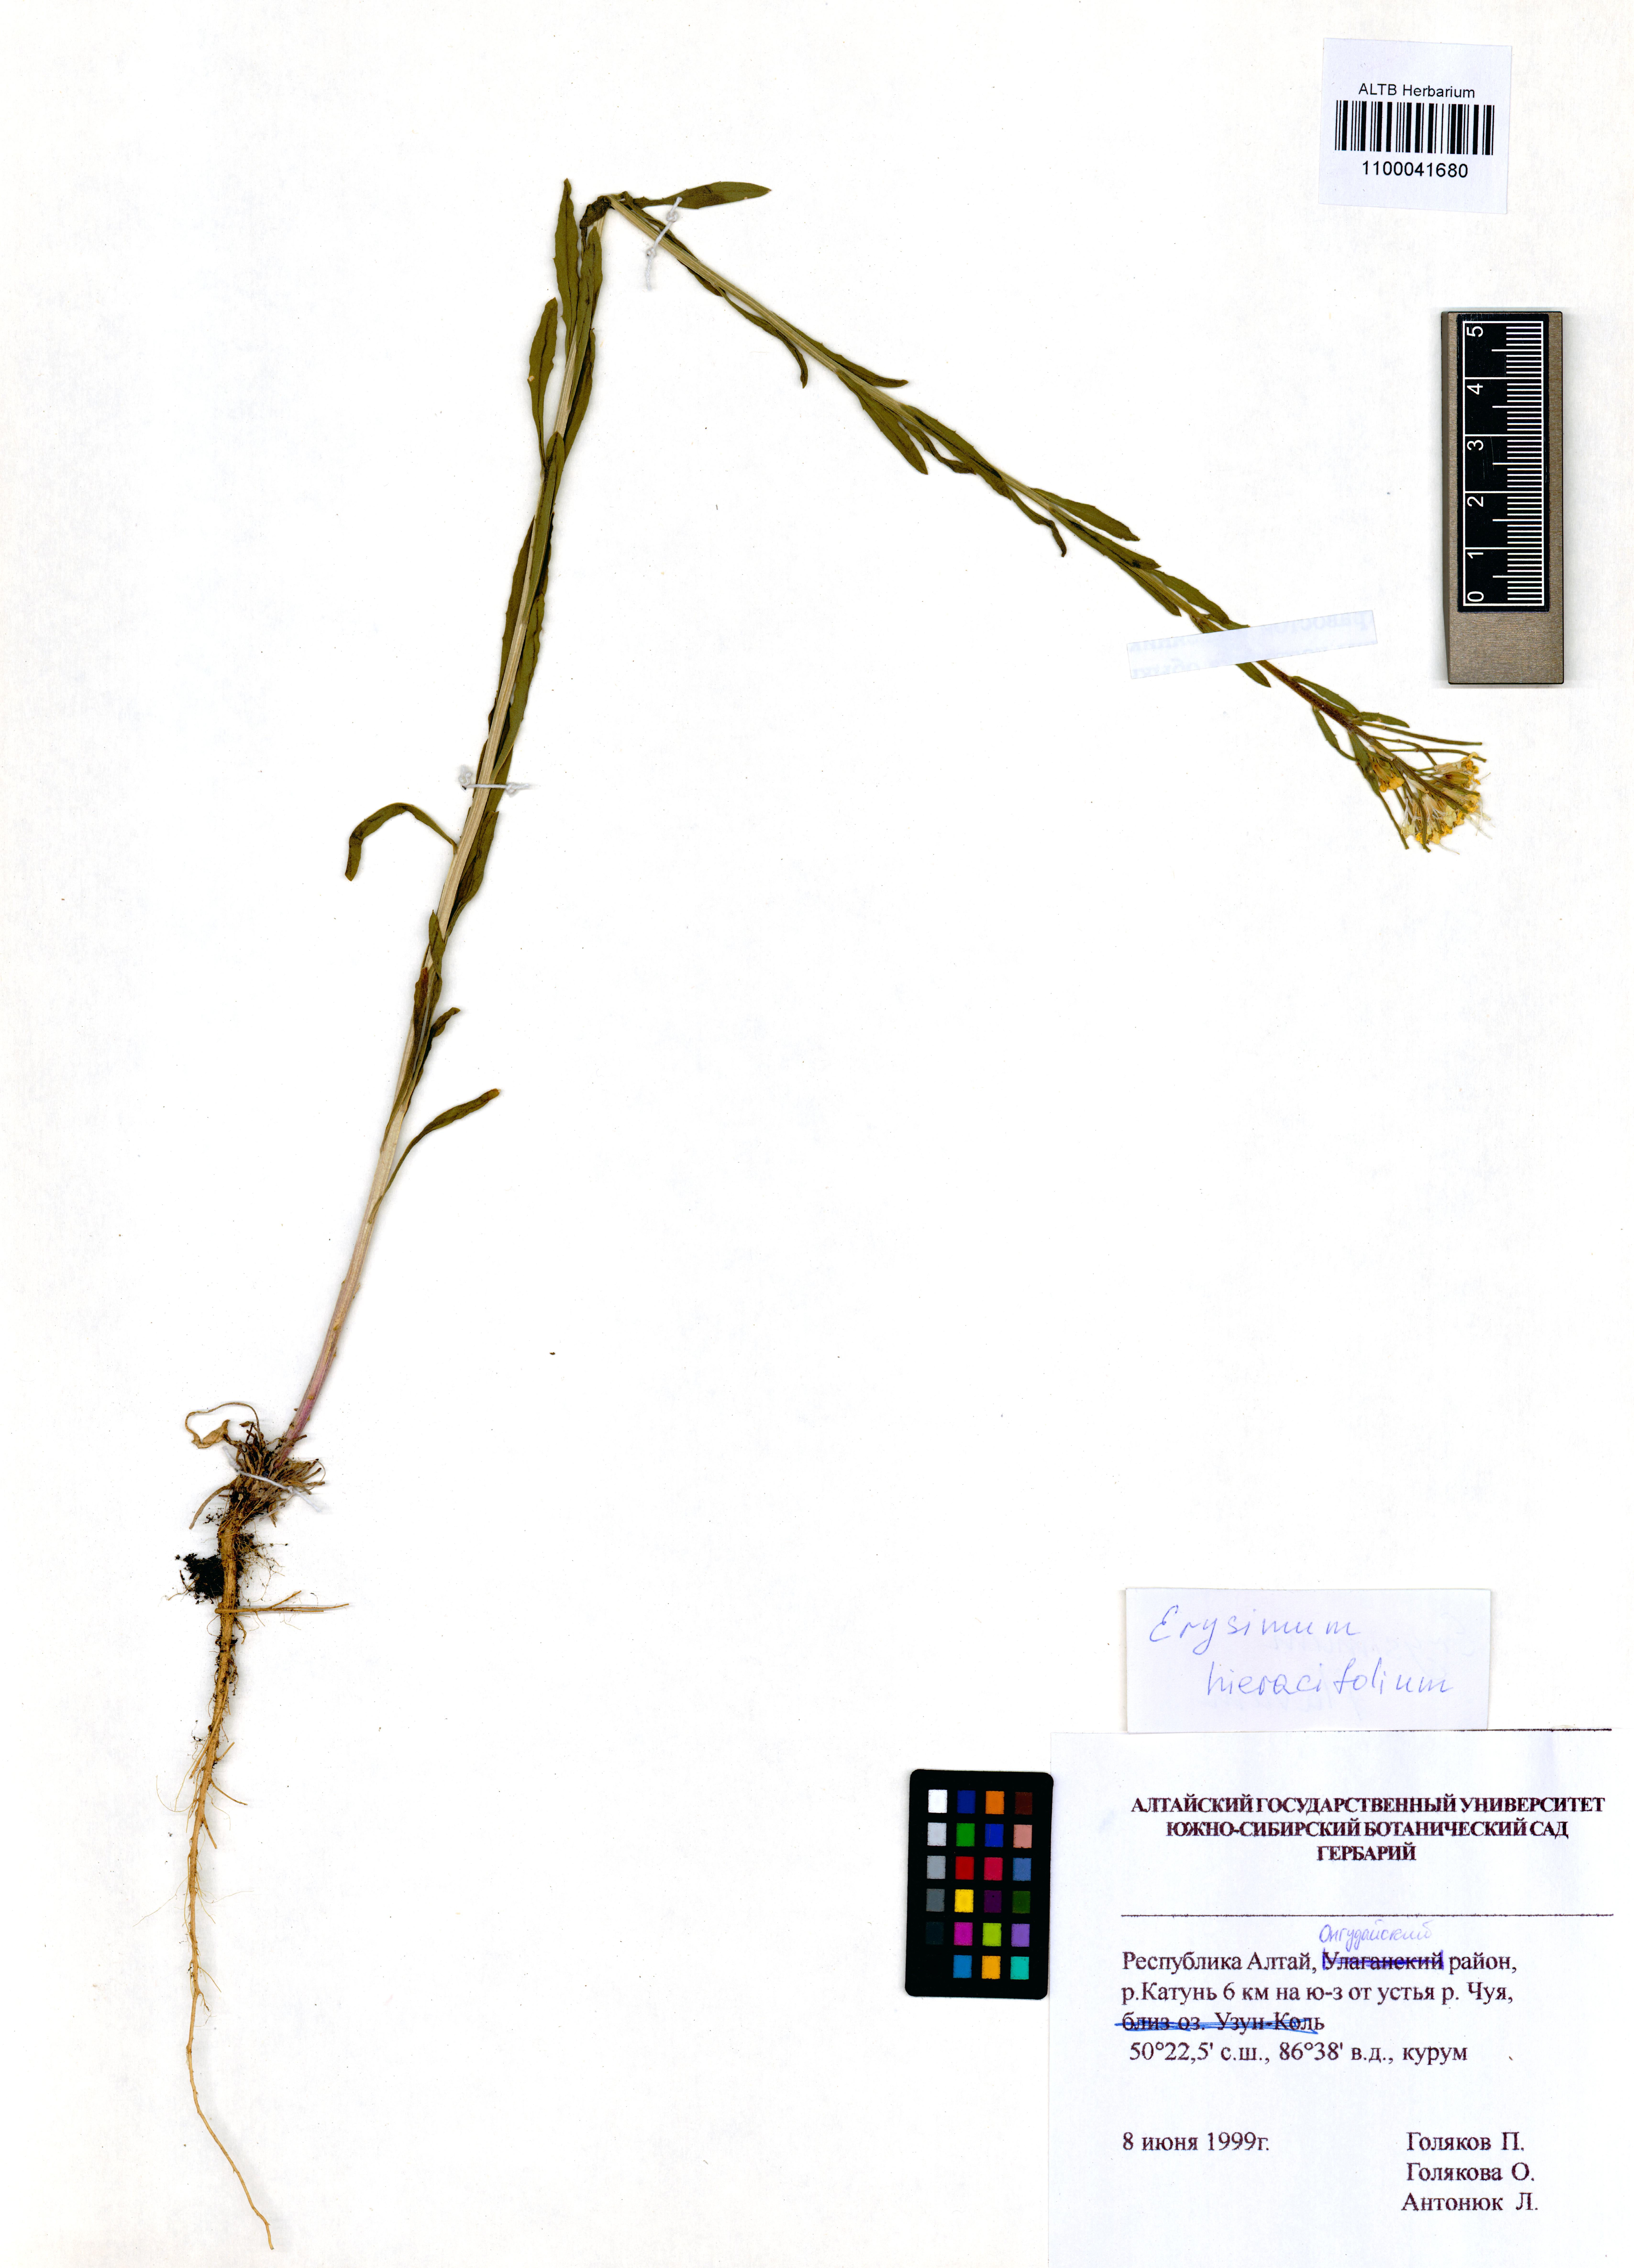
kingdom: Plantae
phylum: Tracheophyta
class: Magnoliopsida
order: Brassicales
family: Brassicaceae
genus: Erysimum
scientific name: Erysimum hieraciifolium
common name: European wallflower
